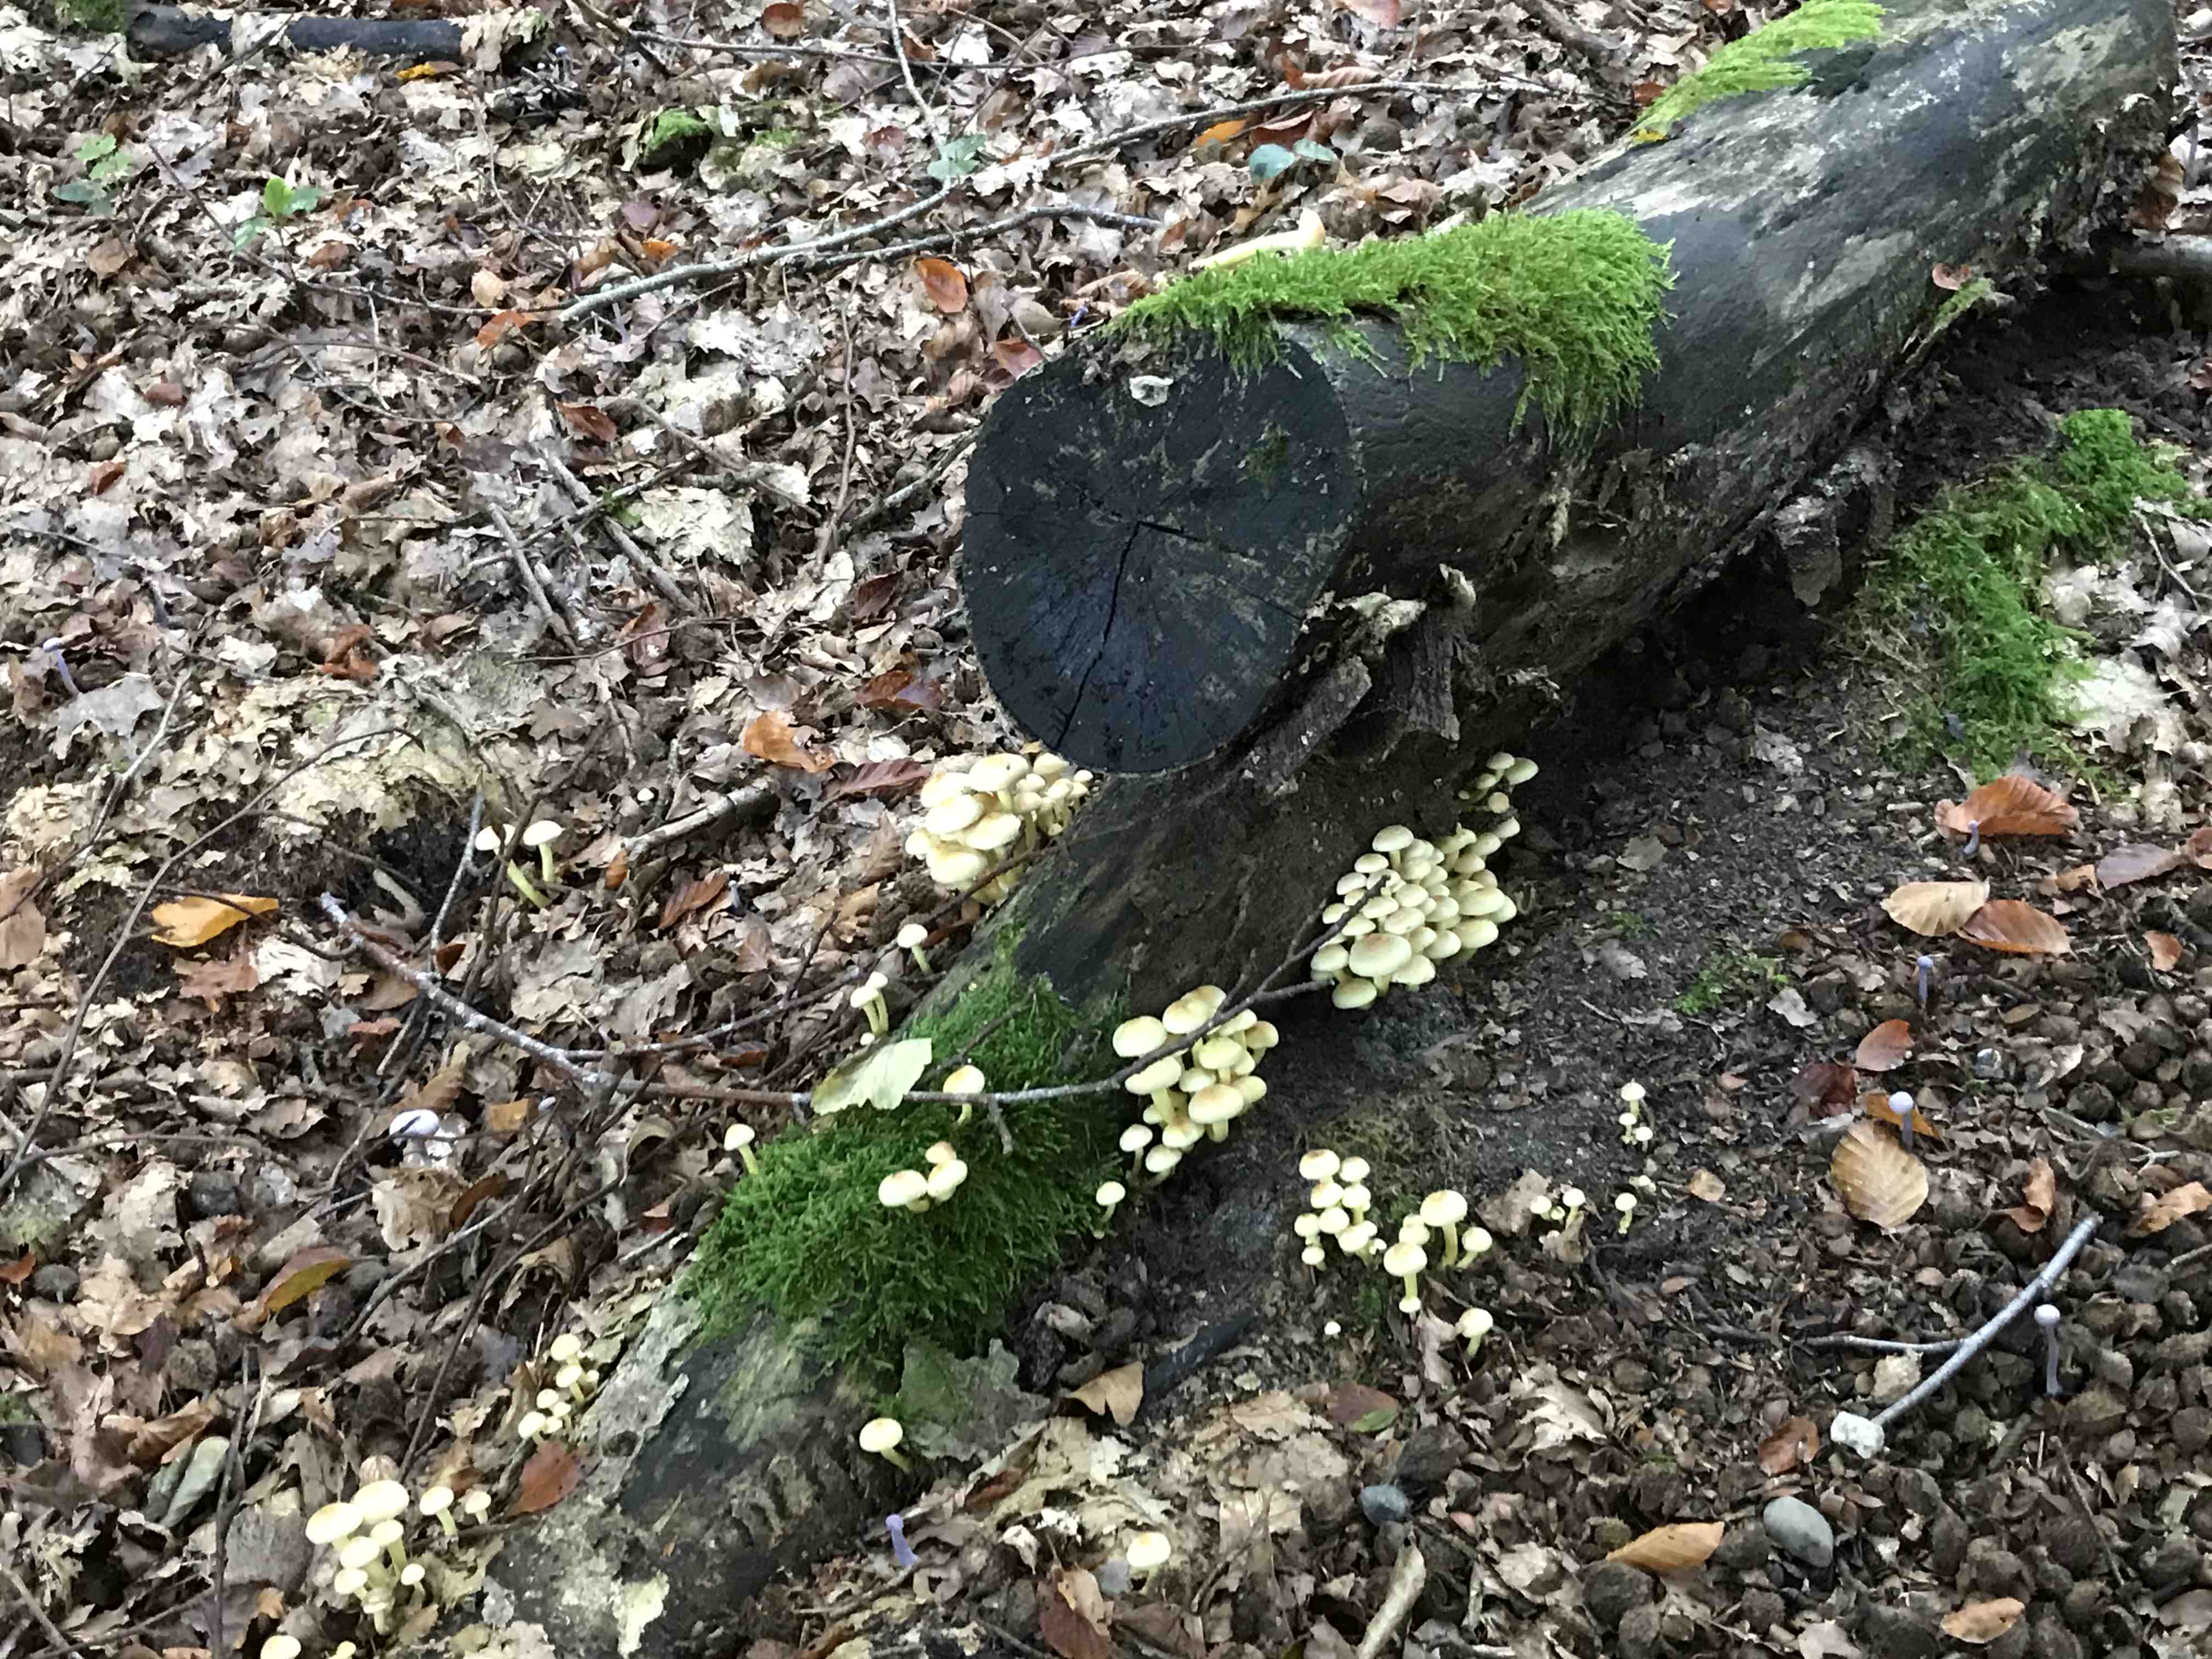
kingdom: Fungi
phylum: Basidiomycota
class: Agaricomycetes
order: Agaricales
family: Strophariaceae
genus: Hypholoma
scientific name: Hypholoma fasciculare
